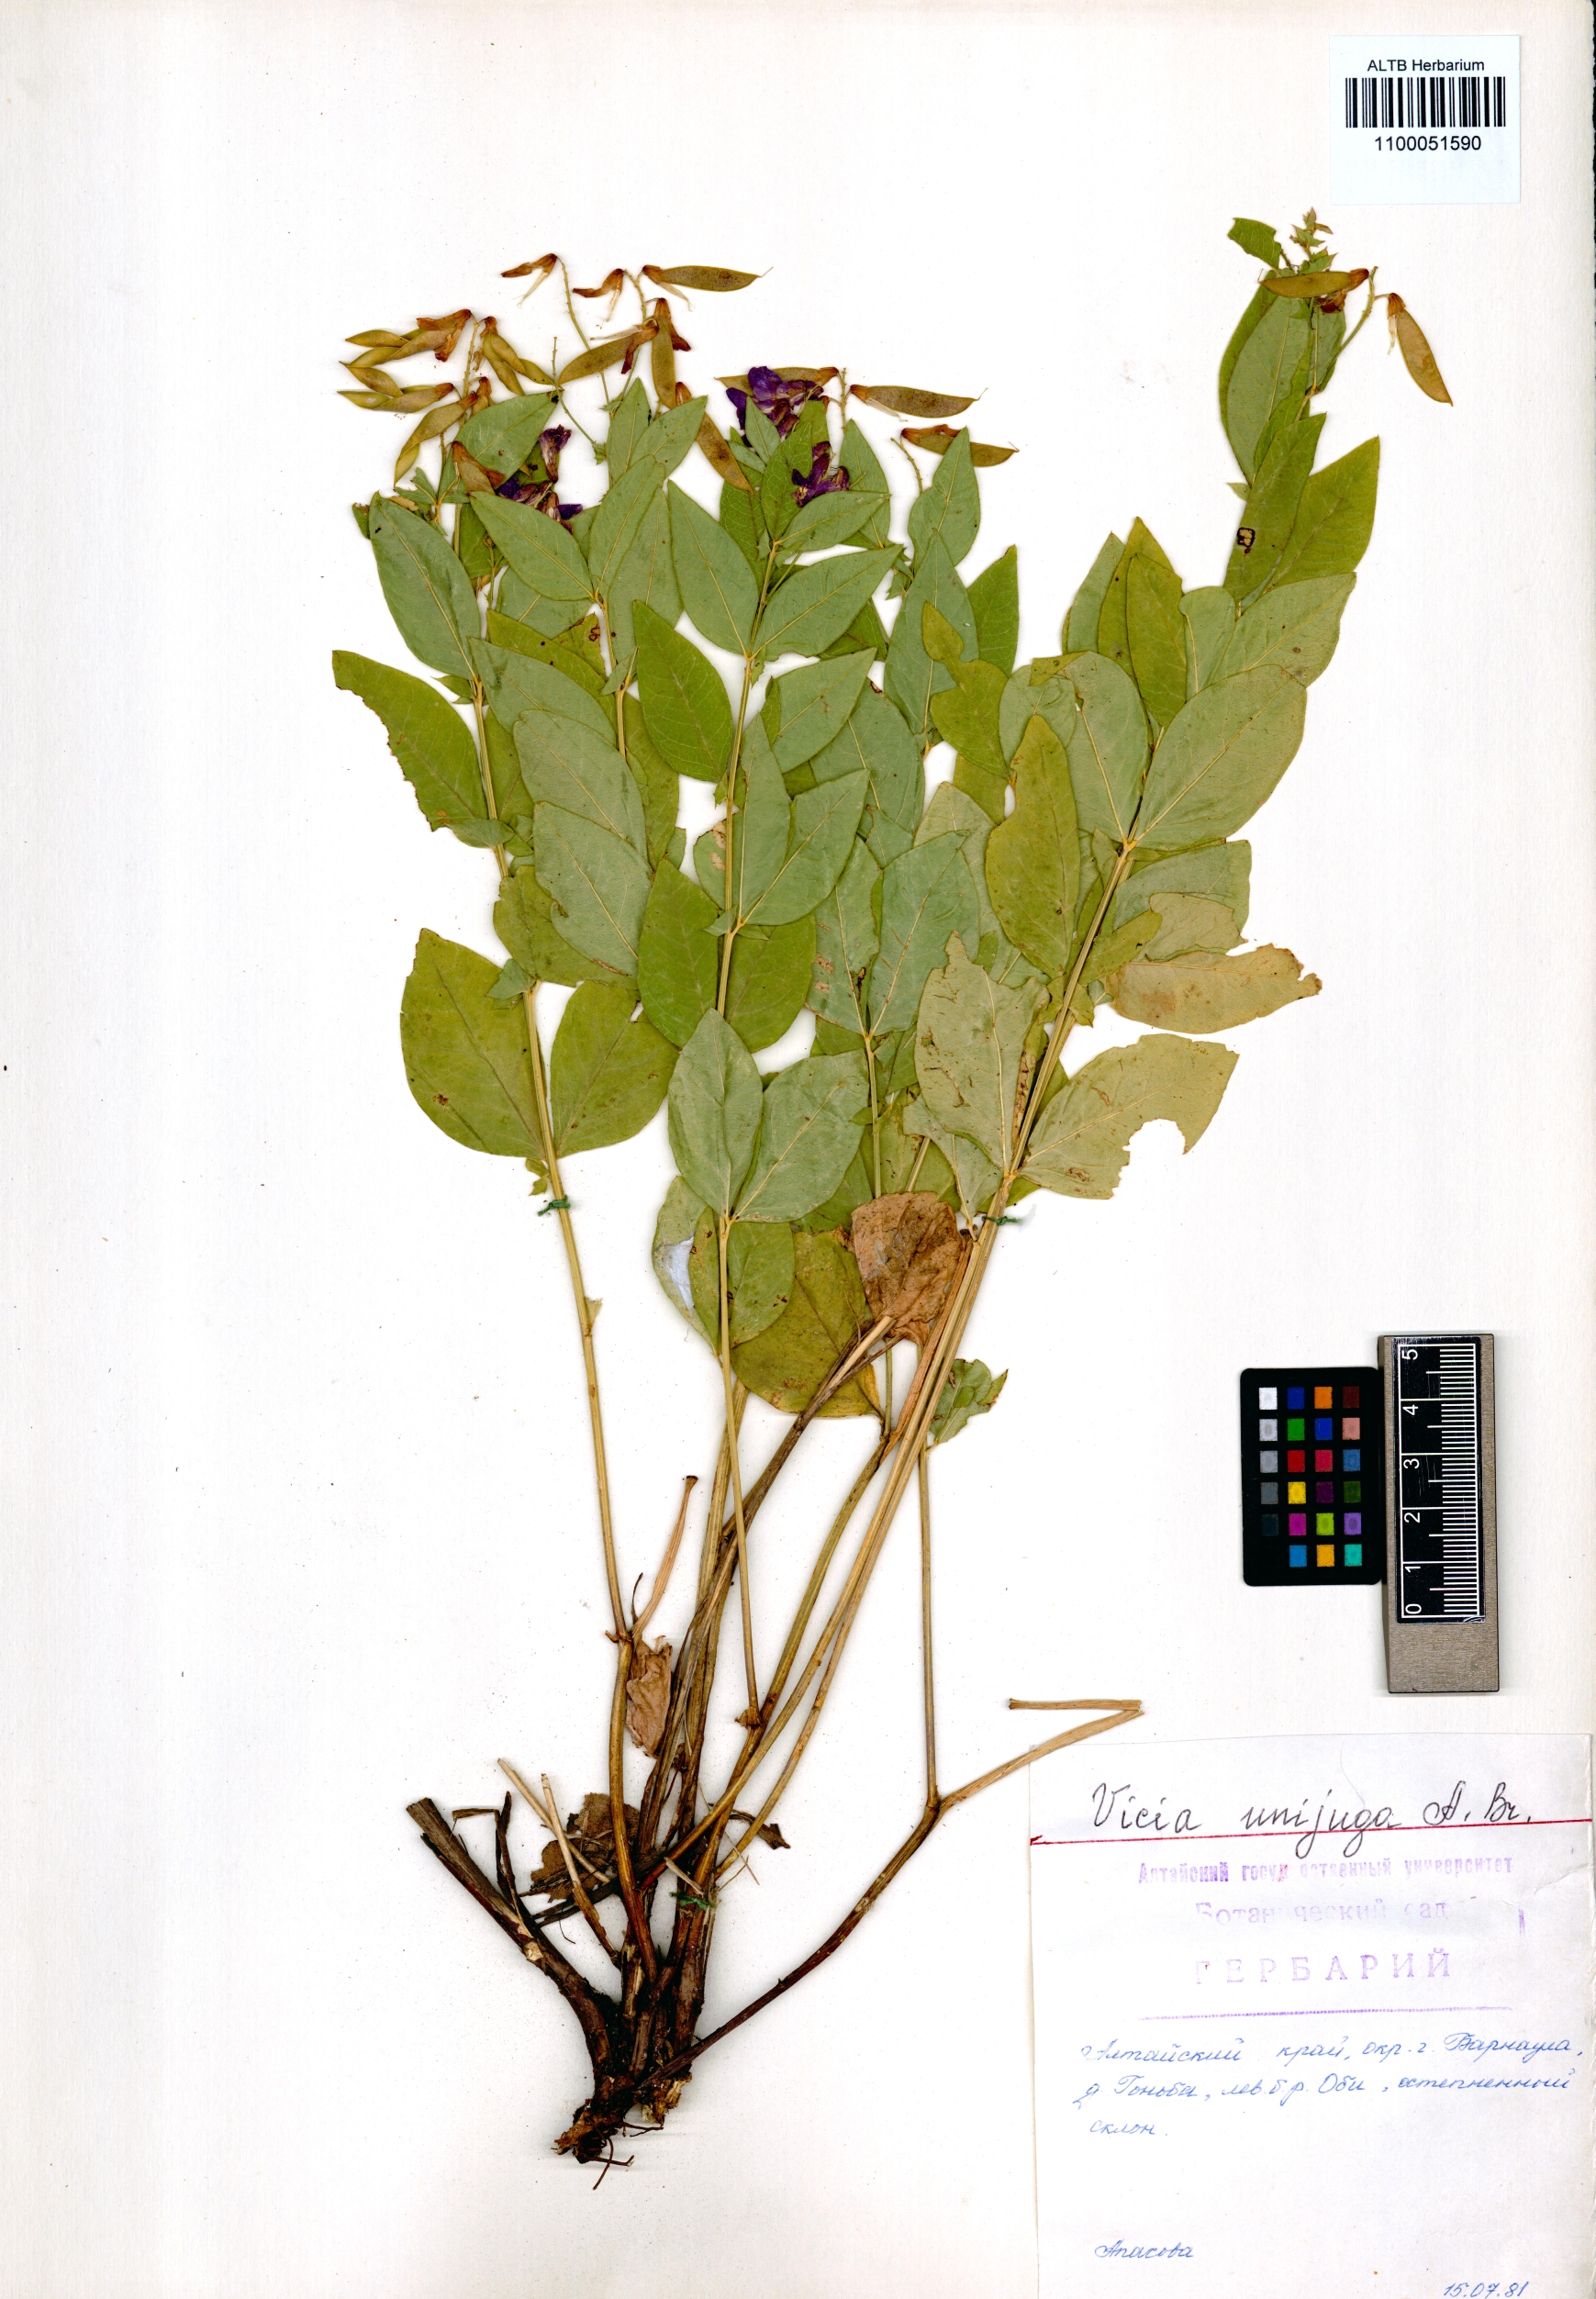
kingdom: Plantae
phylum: Tracheophyta
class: Magnoliopsida
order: Fabales
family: Fabaceae
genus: Vicia
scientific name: Vicia unijuga
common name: Two-leaf vetch
